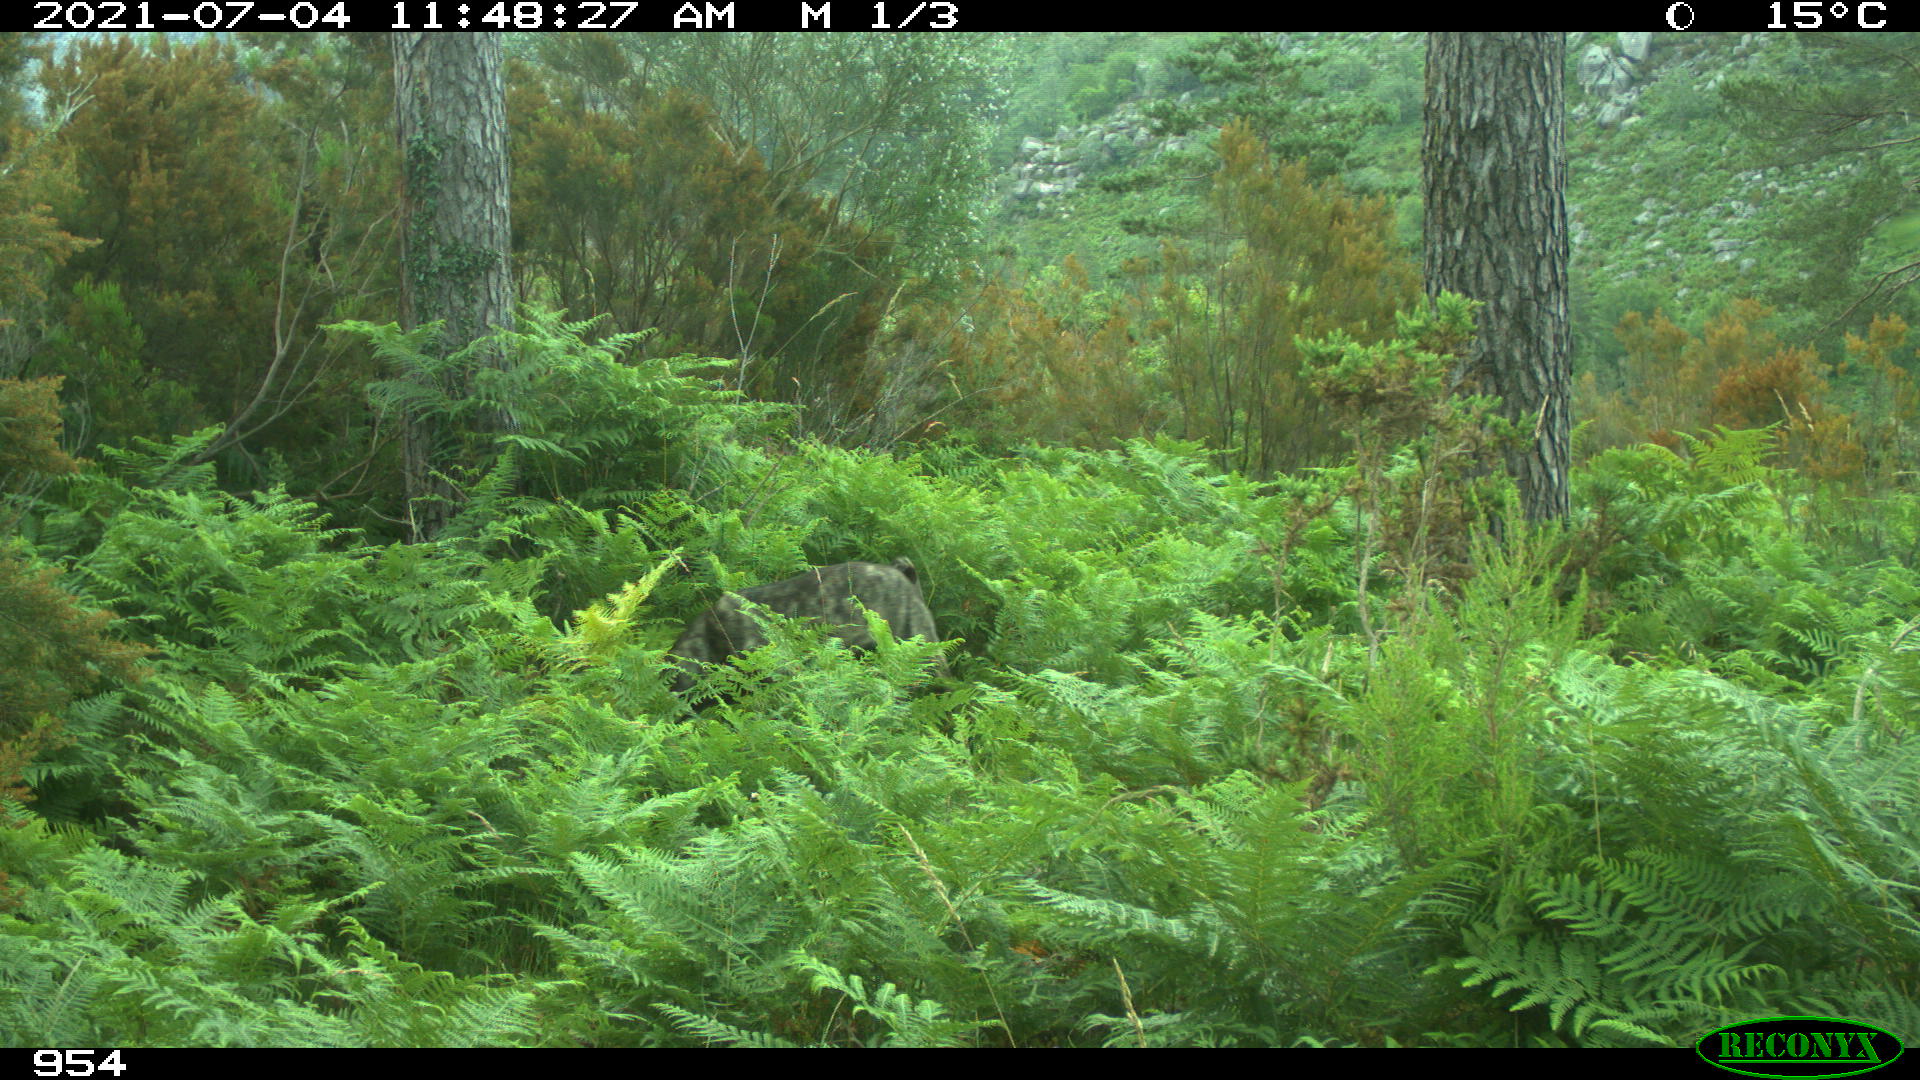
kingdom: Animalia
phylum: Chordata
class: Mammalia
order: Carnivora
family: Canidae
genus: Canis
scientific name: Canis lupus
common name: Gray wolf
